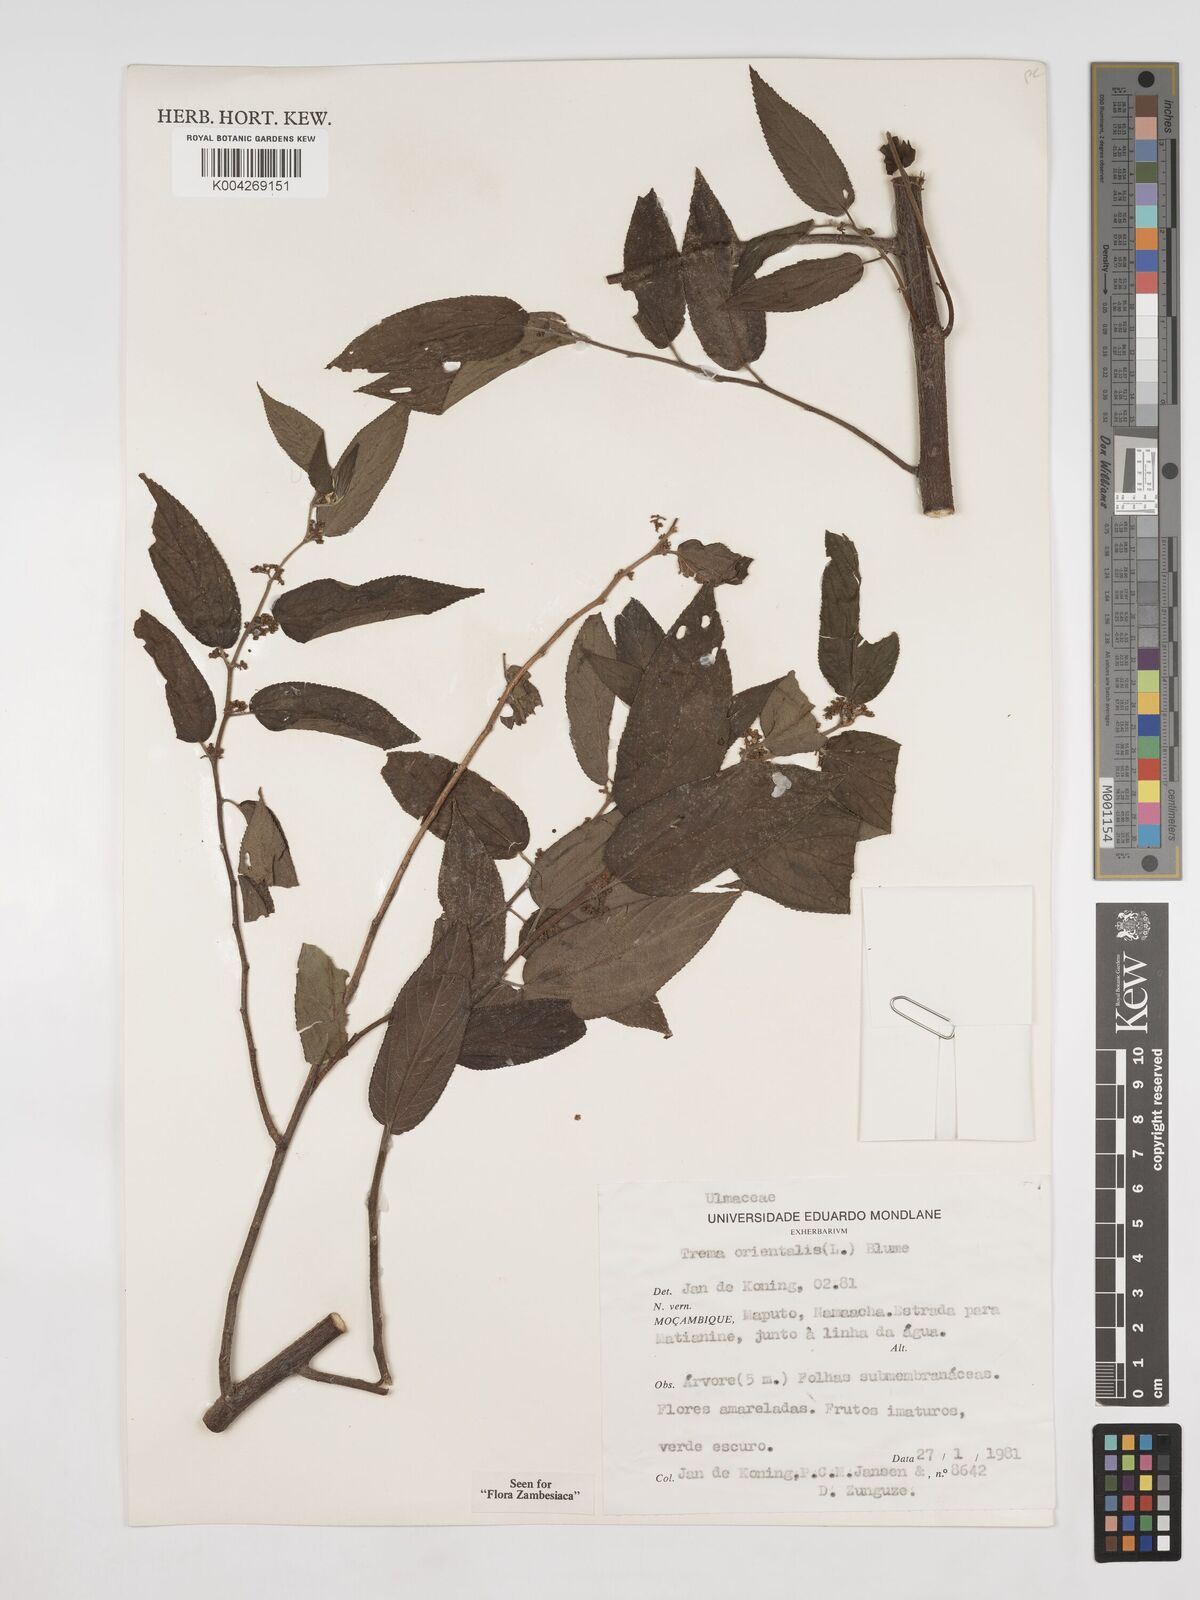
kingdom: Plantae
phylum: Tracheophyta
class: Magnoliopsida
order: Rosales
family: Cannabaceae
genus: Trema
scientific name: Trema orientale
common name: Indian charcoal tree
